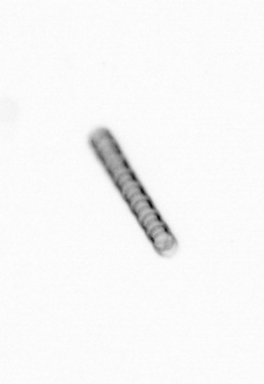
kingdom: Chromista
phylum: Ochrophyta
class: Bacillariophyceae
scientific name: Bacillariophyceae
